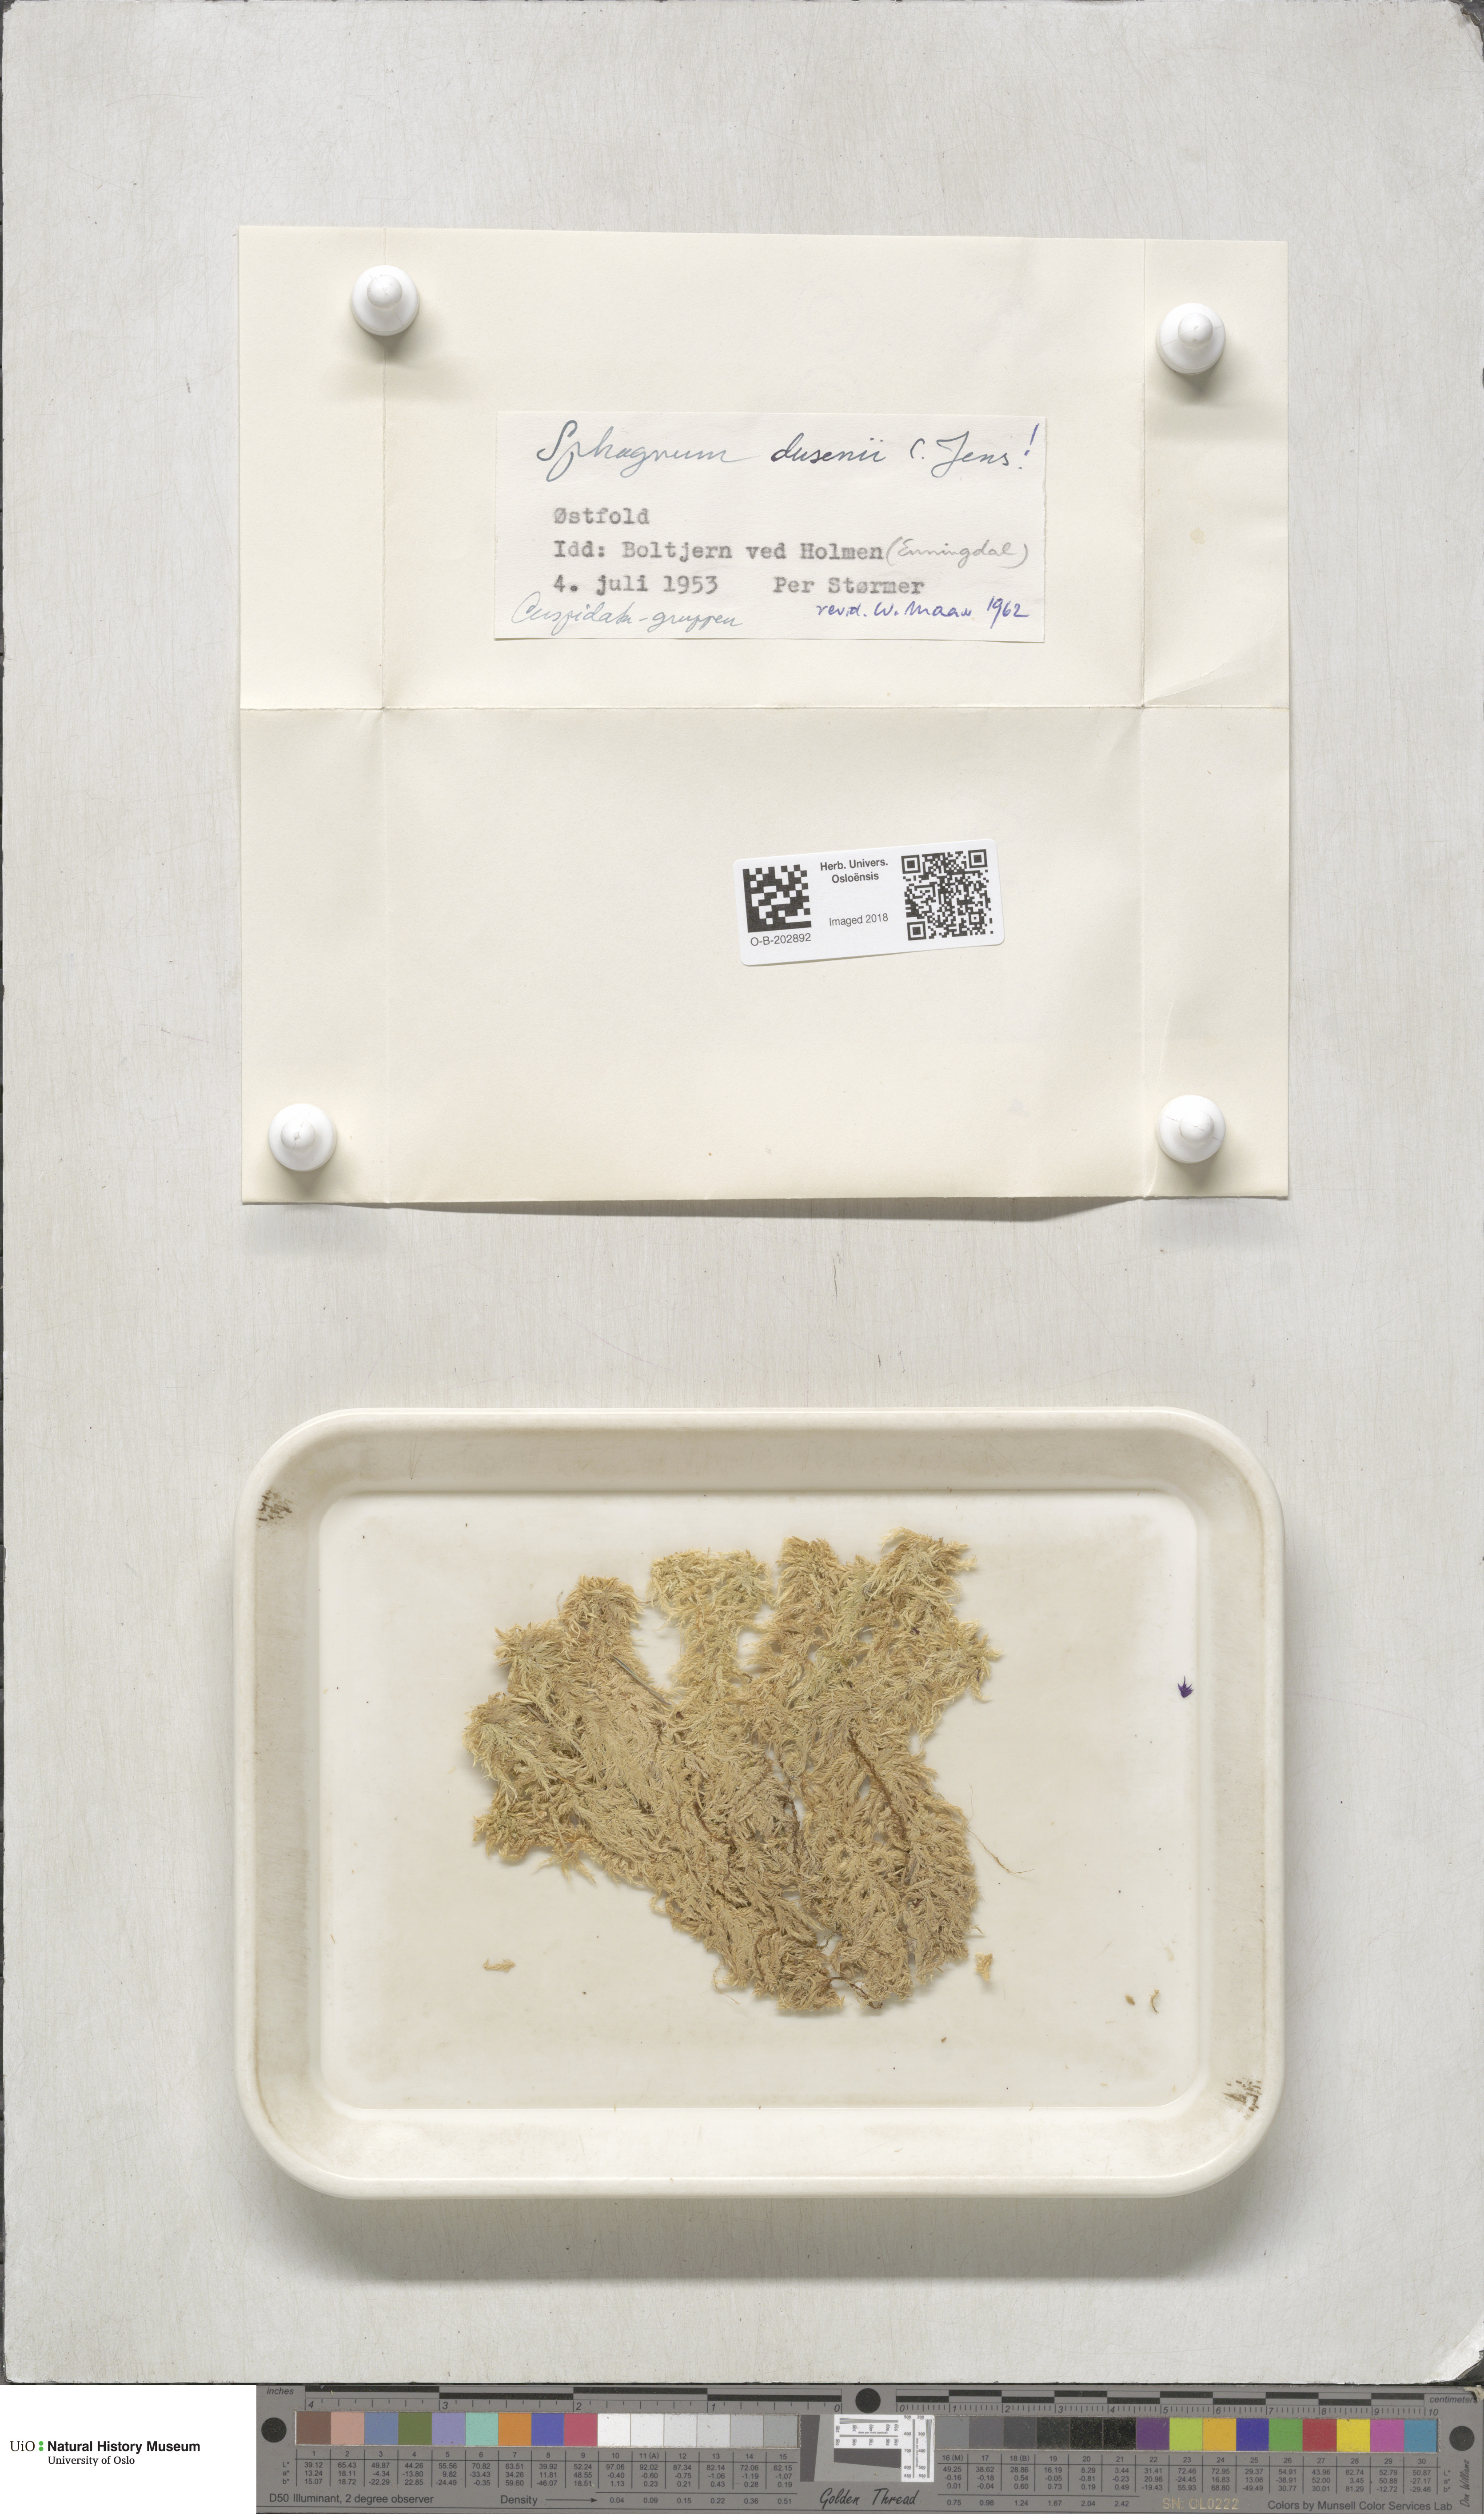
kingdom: Plantae
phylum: Bryophyta
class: Sphagnopsida
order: Sphagnales
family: Sphagnaceae
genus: Sphagnum
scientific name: Sphagnum majus
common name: Olive bog-moss
